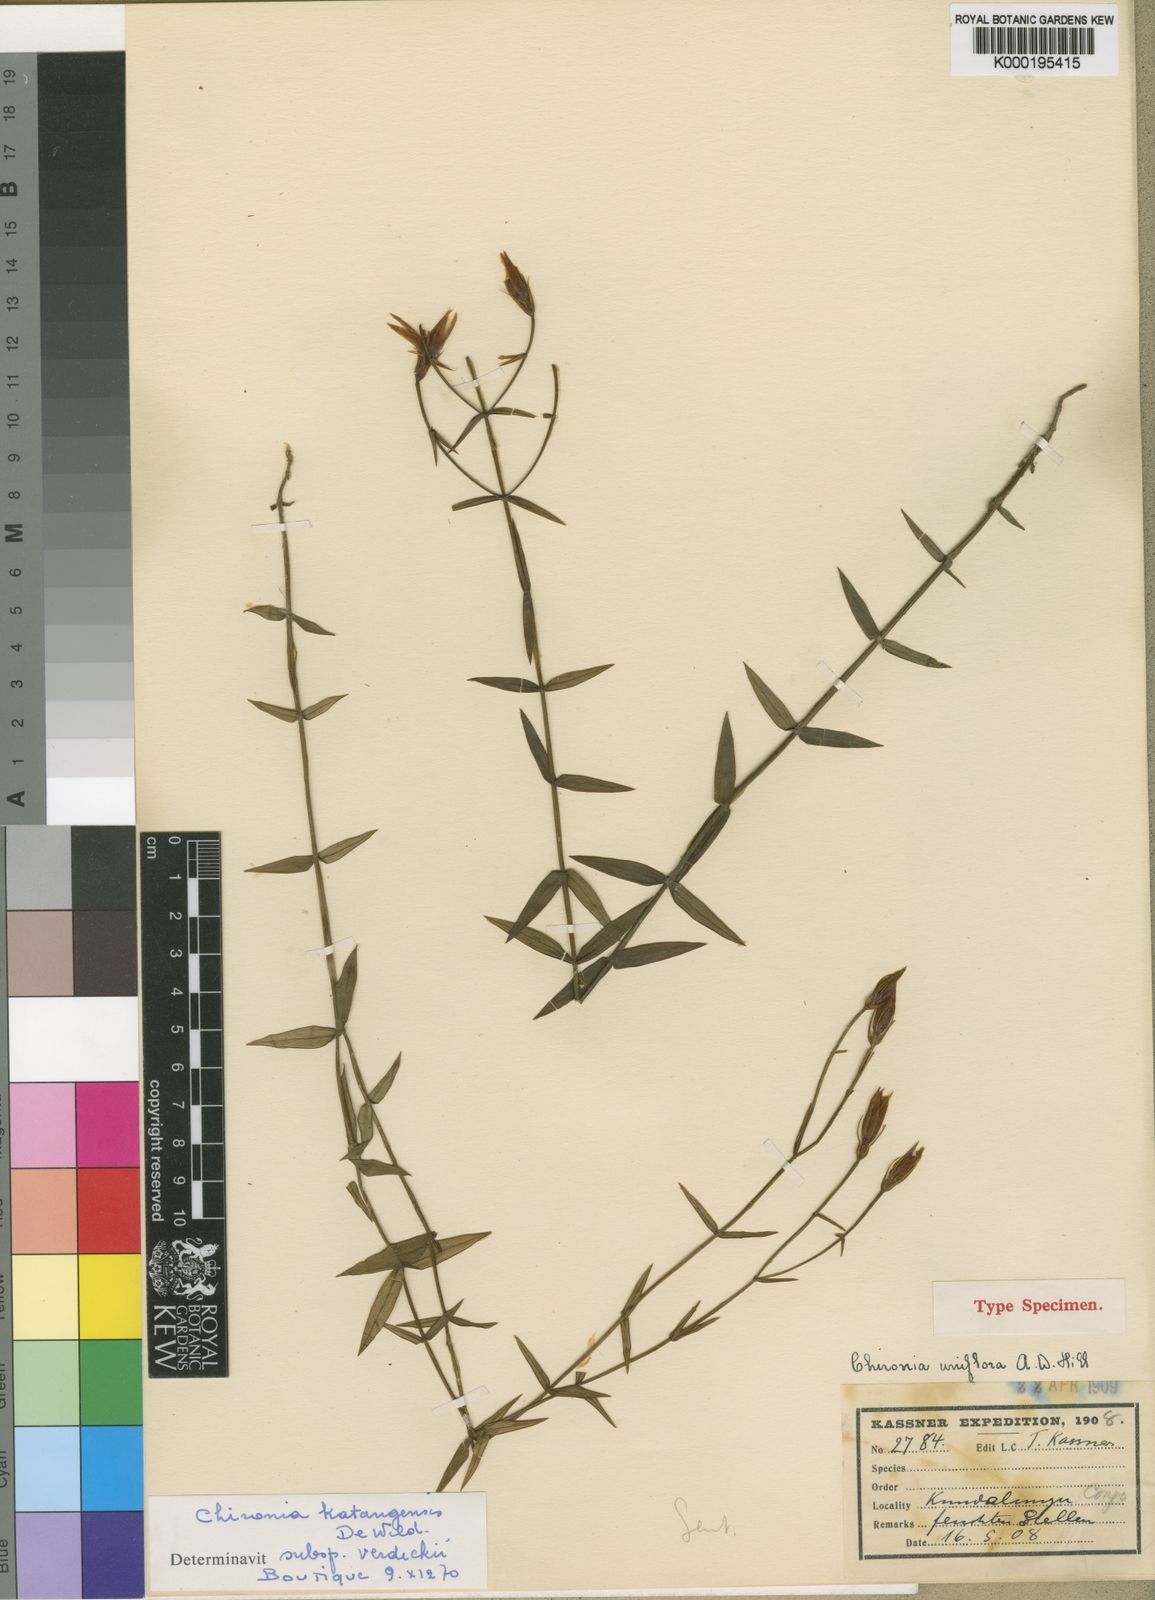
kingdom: Plantae
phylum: Tracheophyta
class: Magnoliopsida
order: Gentianales
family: Gentianaceae
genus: Chironia
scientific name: Chironia katangensis
